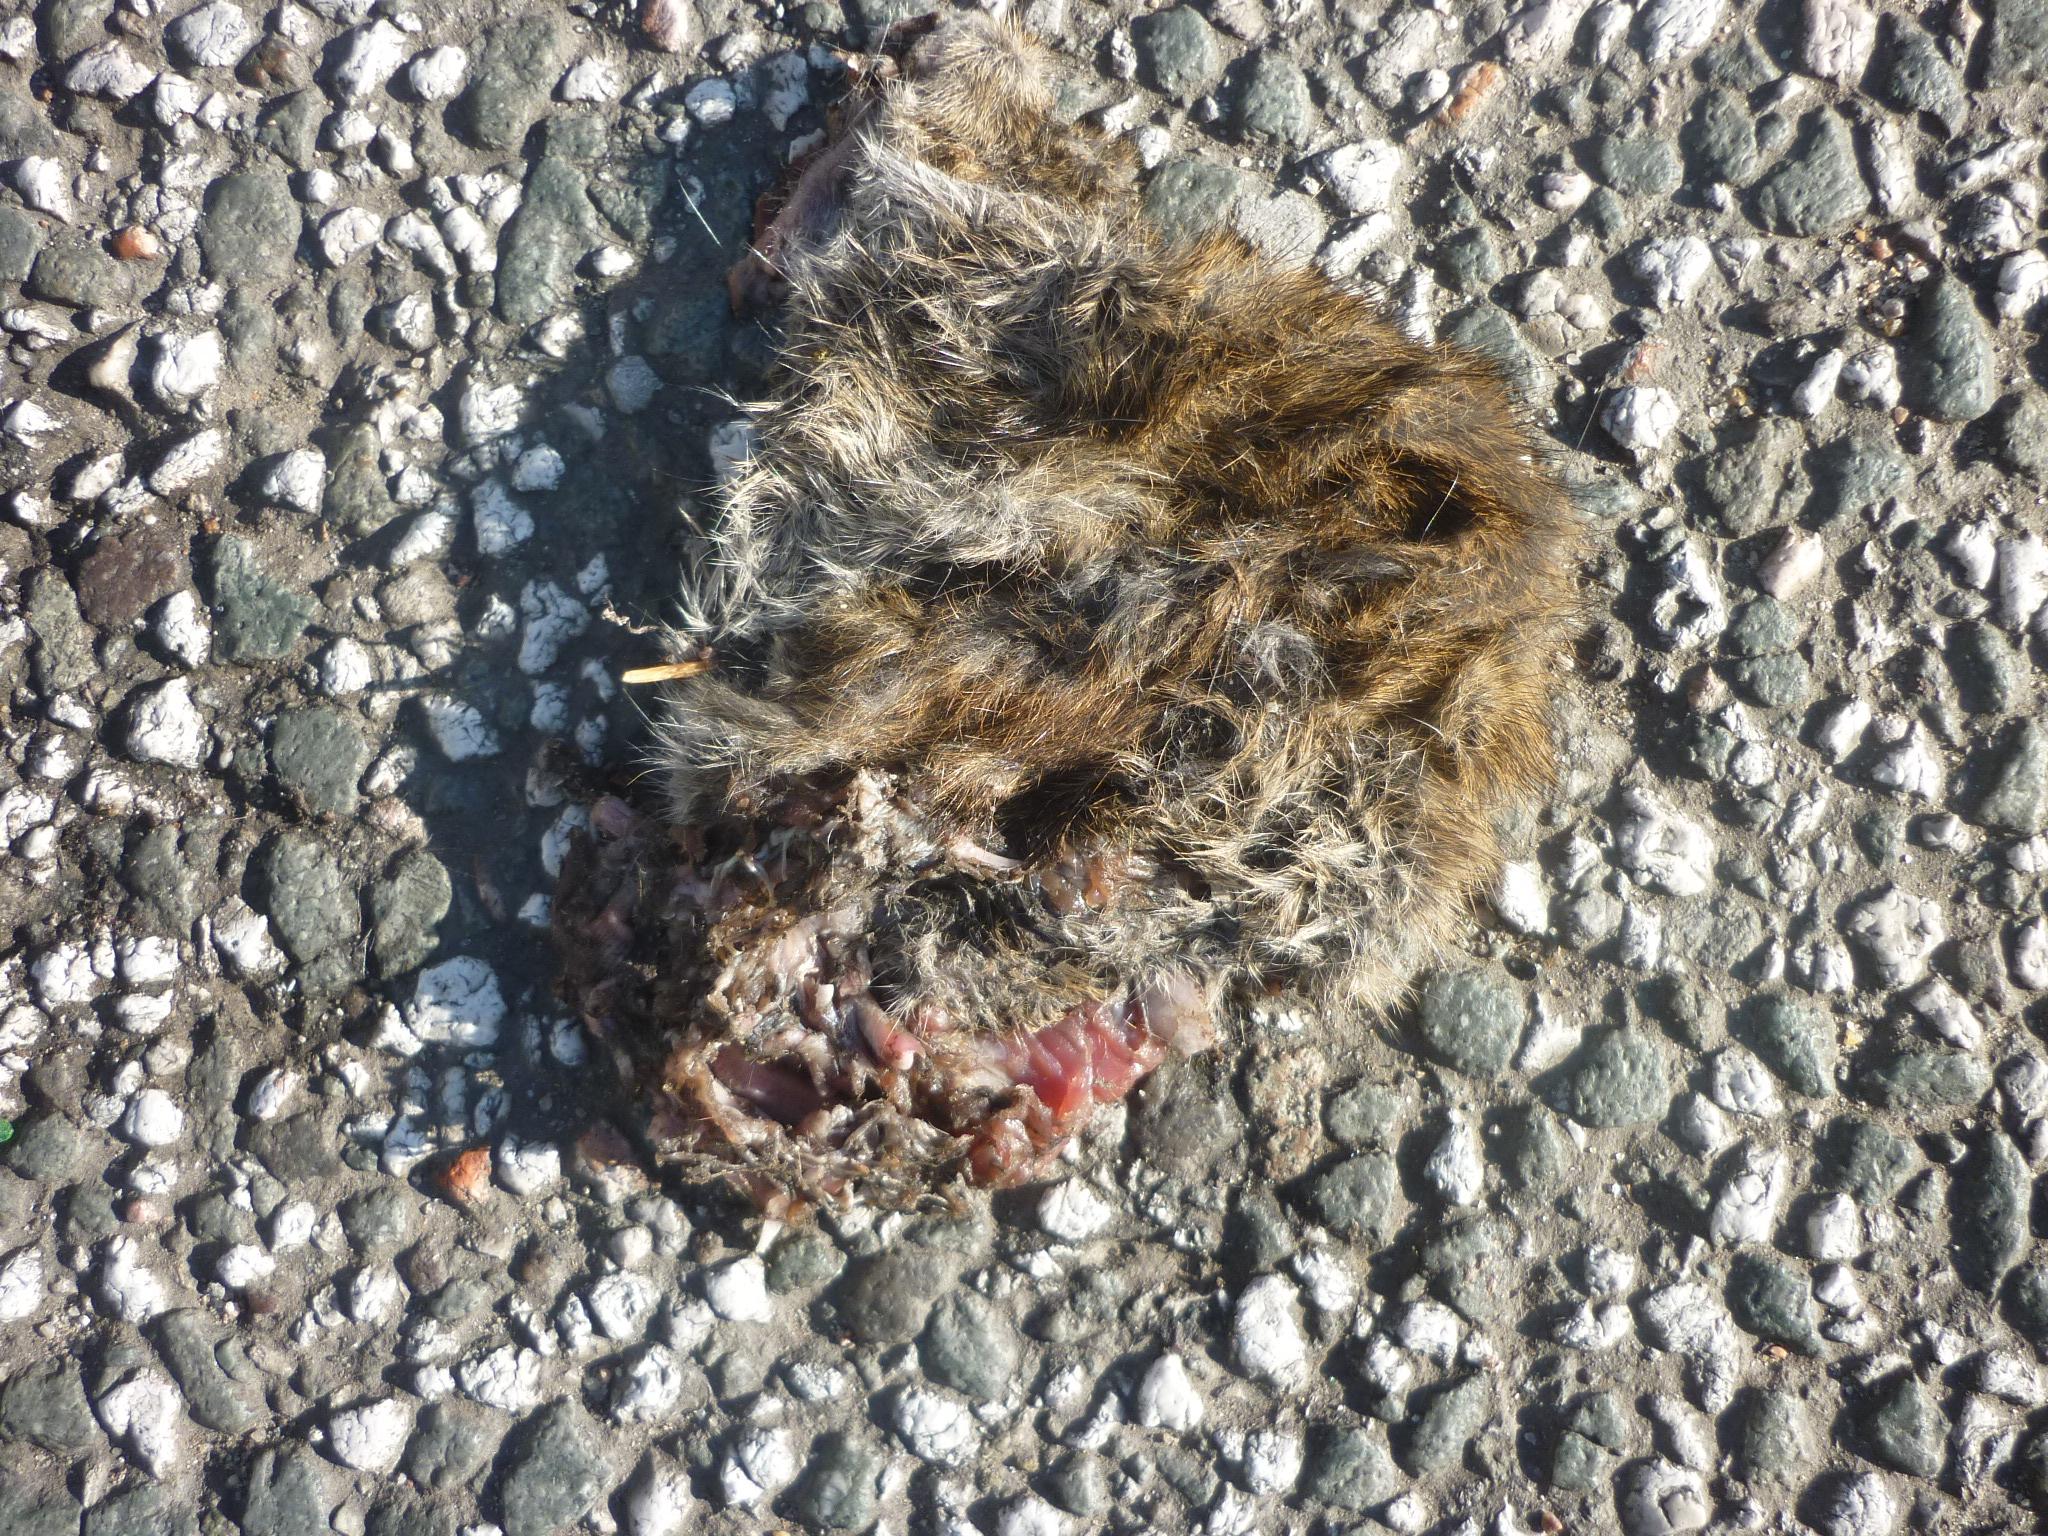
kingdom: Animalia
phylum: Chordata
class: Mammalia
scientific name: Mammalia
